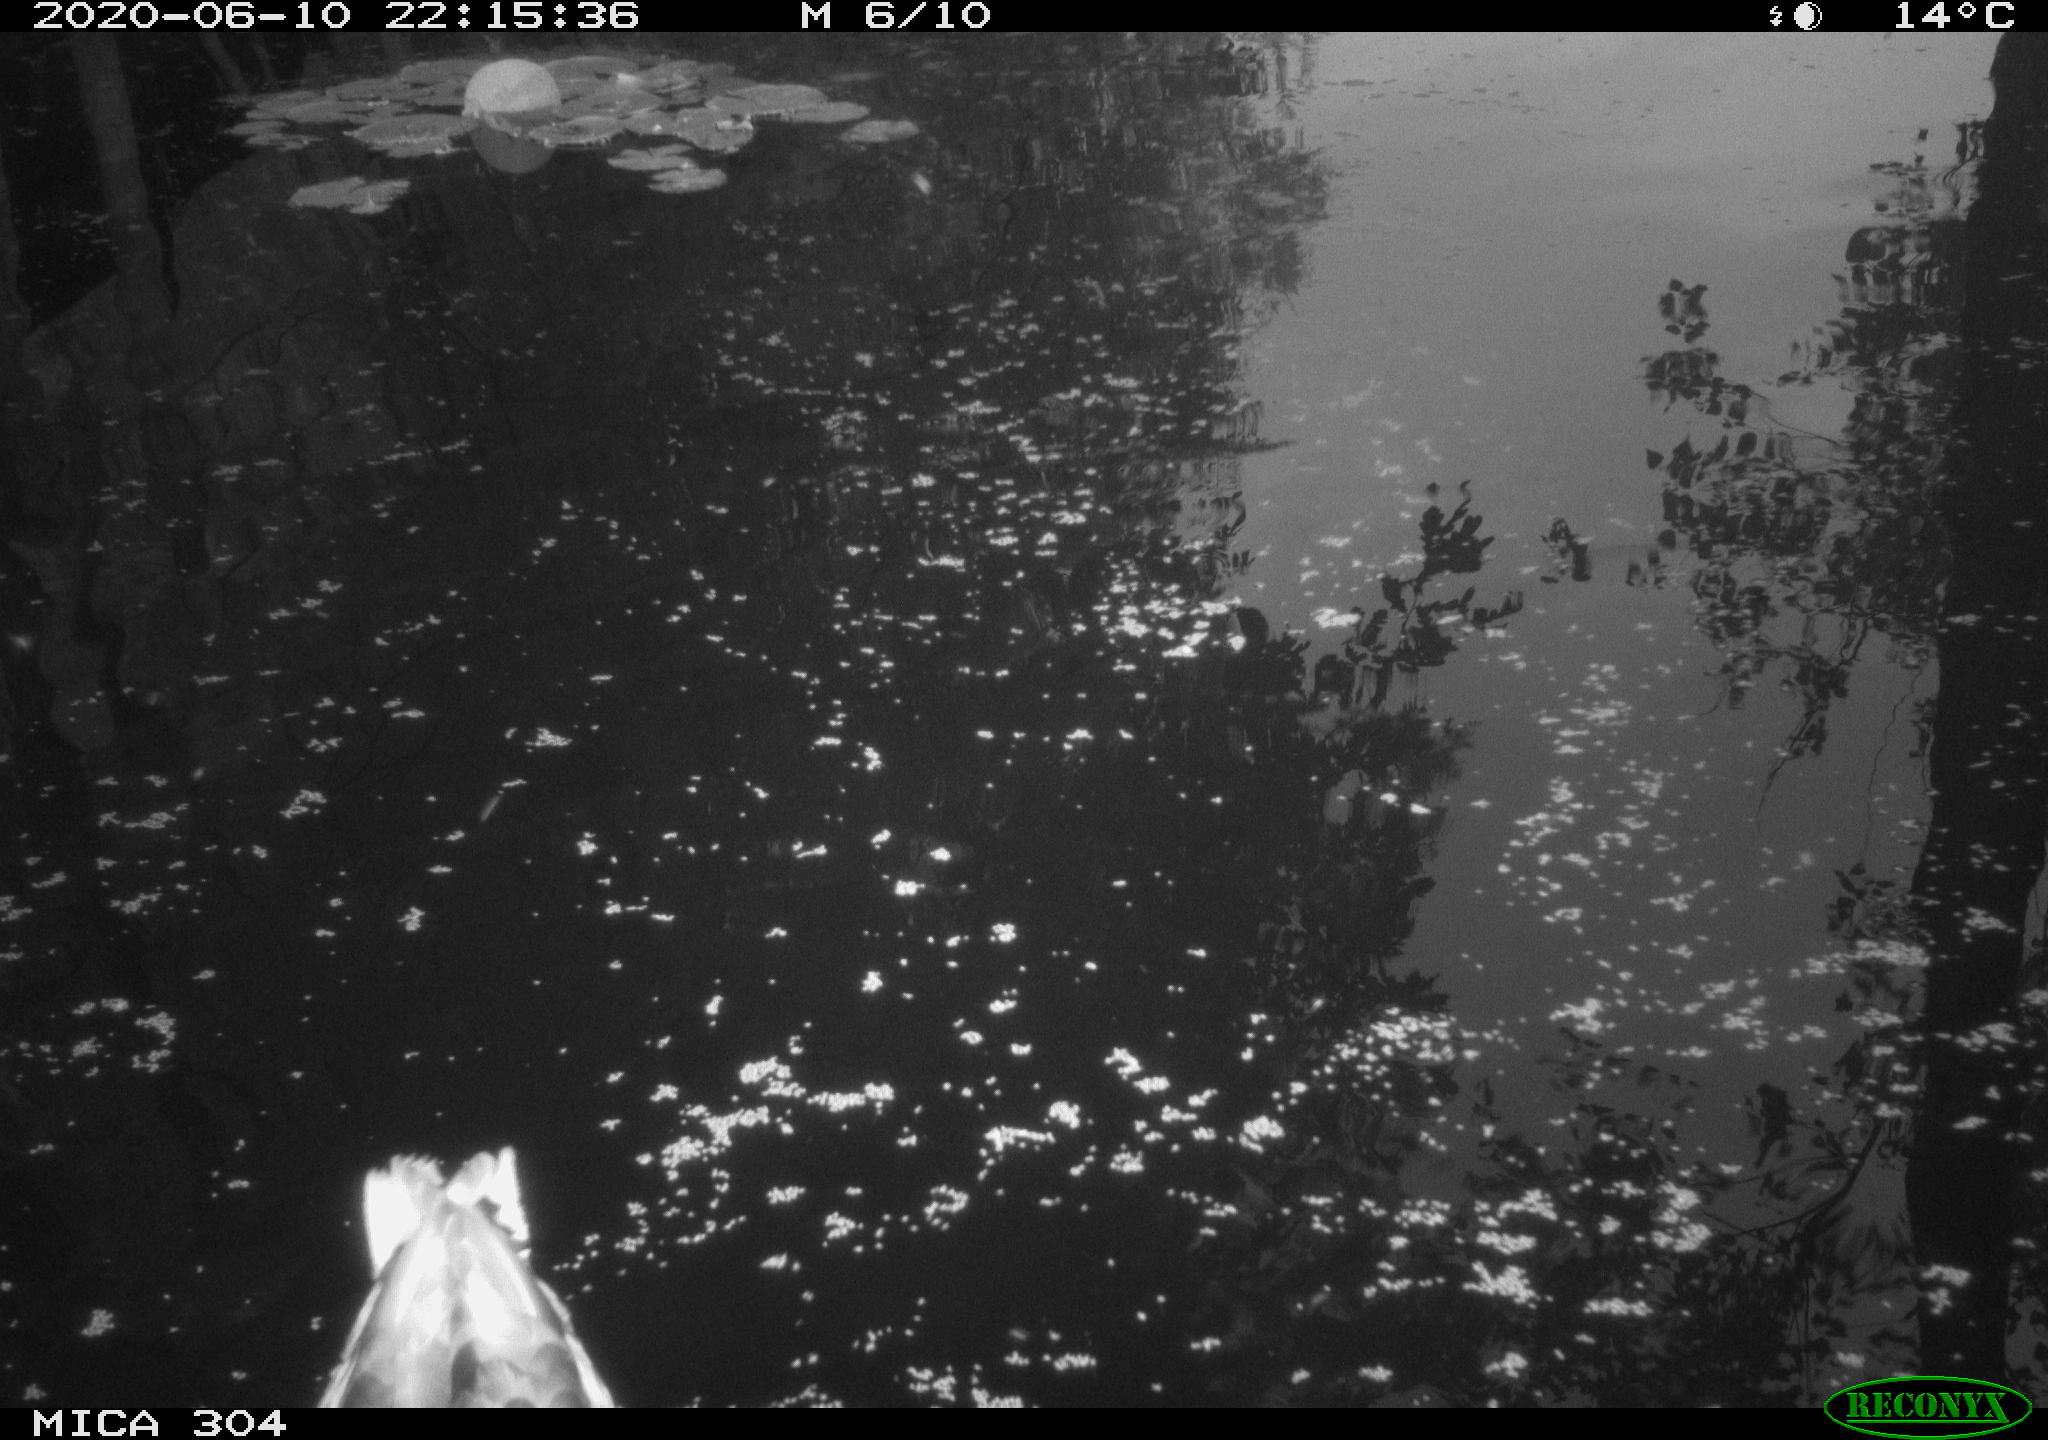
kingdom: Animalia
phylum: Chordata
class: Aves
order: Anseriformes
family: Anatidae
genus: Anas
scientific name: Anas platyrhynchos
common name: Mallard
